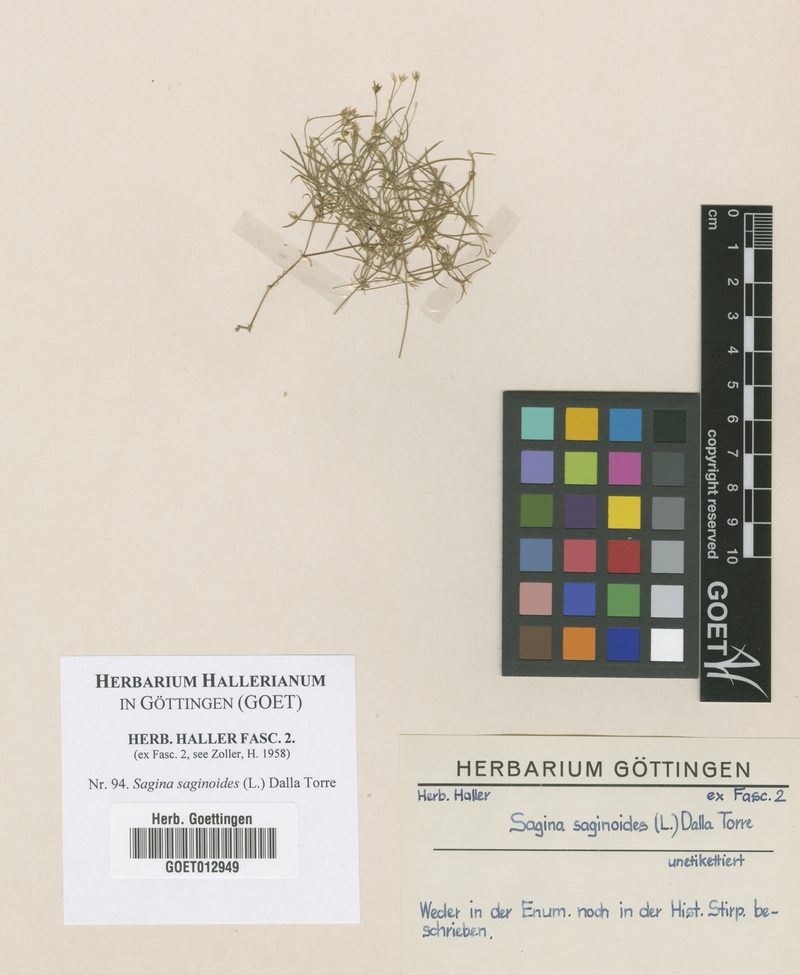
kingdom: Plantae
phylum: Tracheophyta
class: Magnoliopsida
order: Caryophyllales
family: Caryophyllaceae
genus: Sagina
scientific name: Sagina saginoides
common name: Alpine pearlwort
